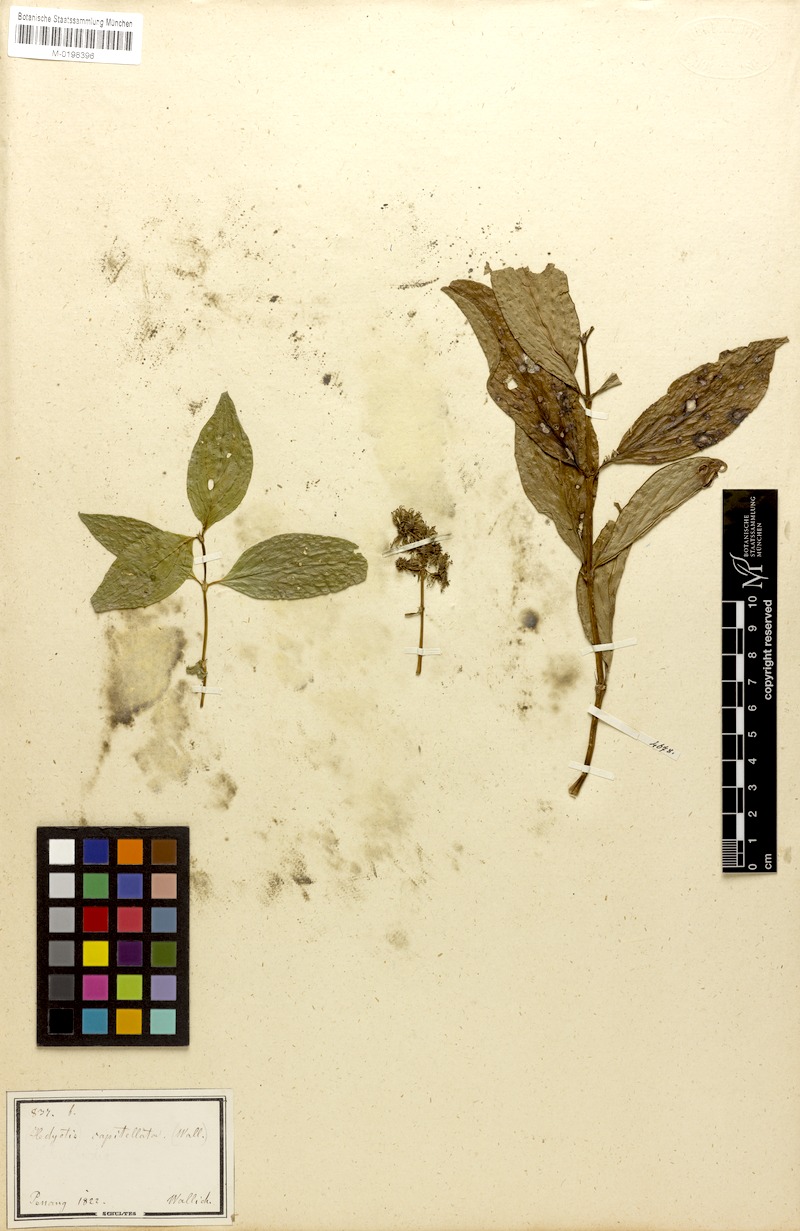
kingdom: Plantae
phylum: Tracheophyta
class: Magnoliopsida
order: Gentianales
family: Rubiaceae
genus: Dimetia
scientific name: Dimetia capitellata
